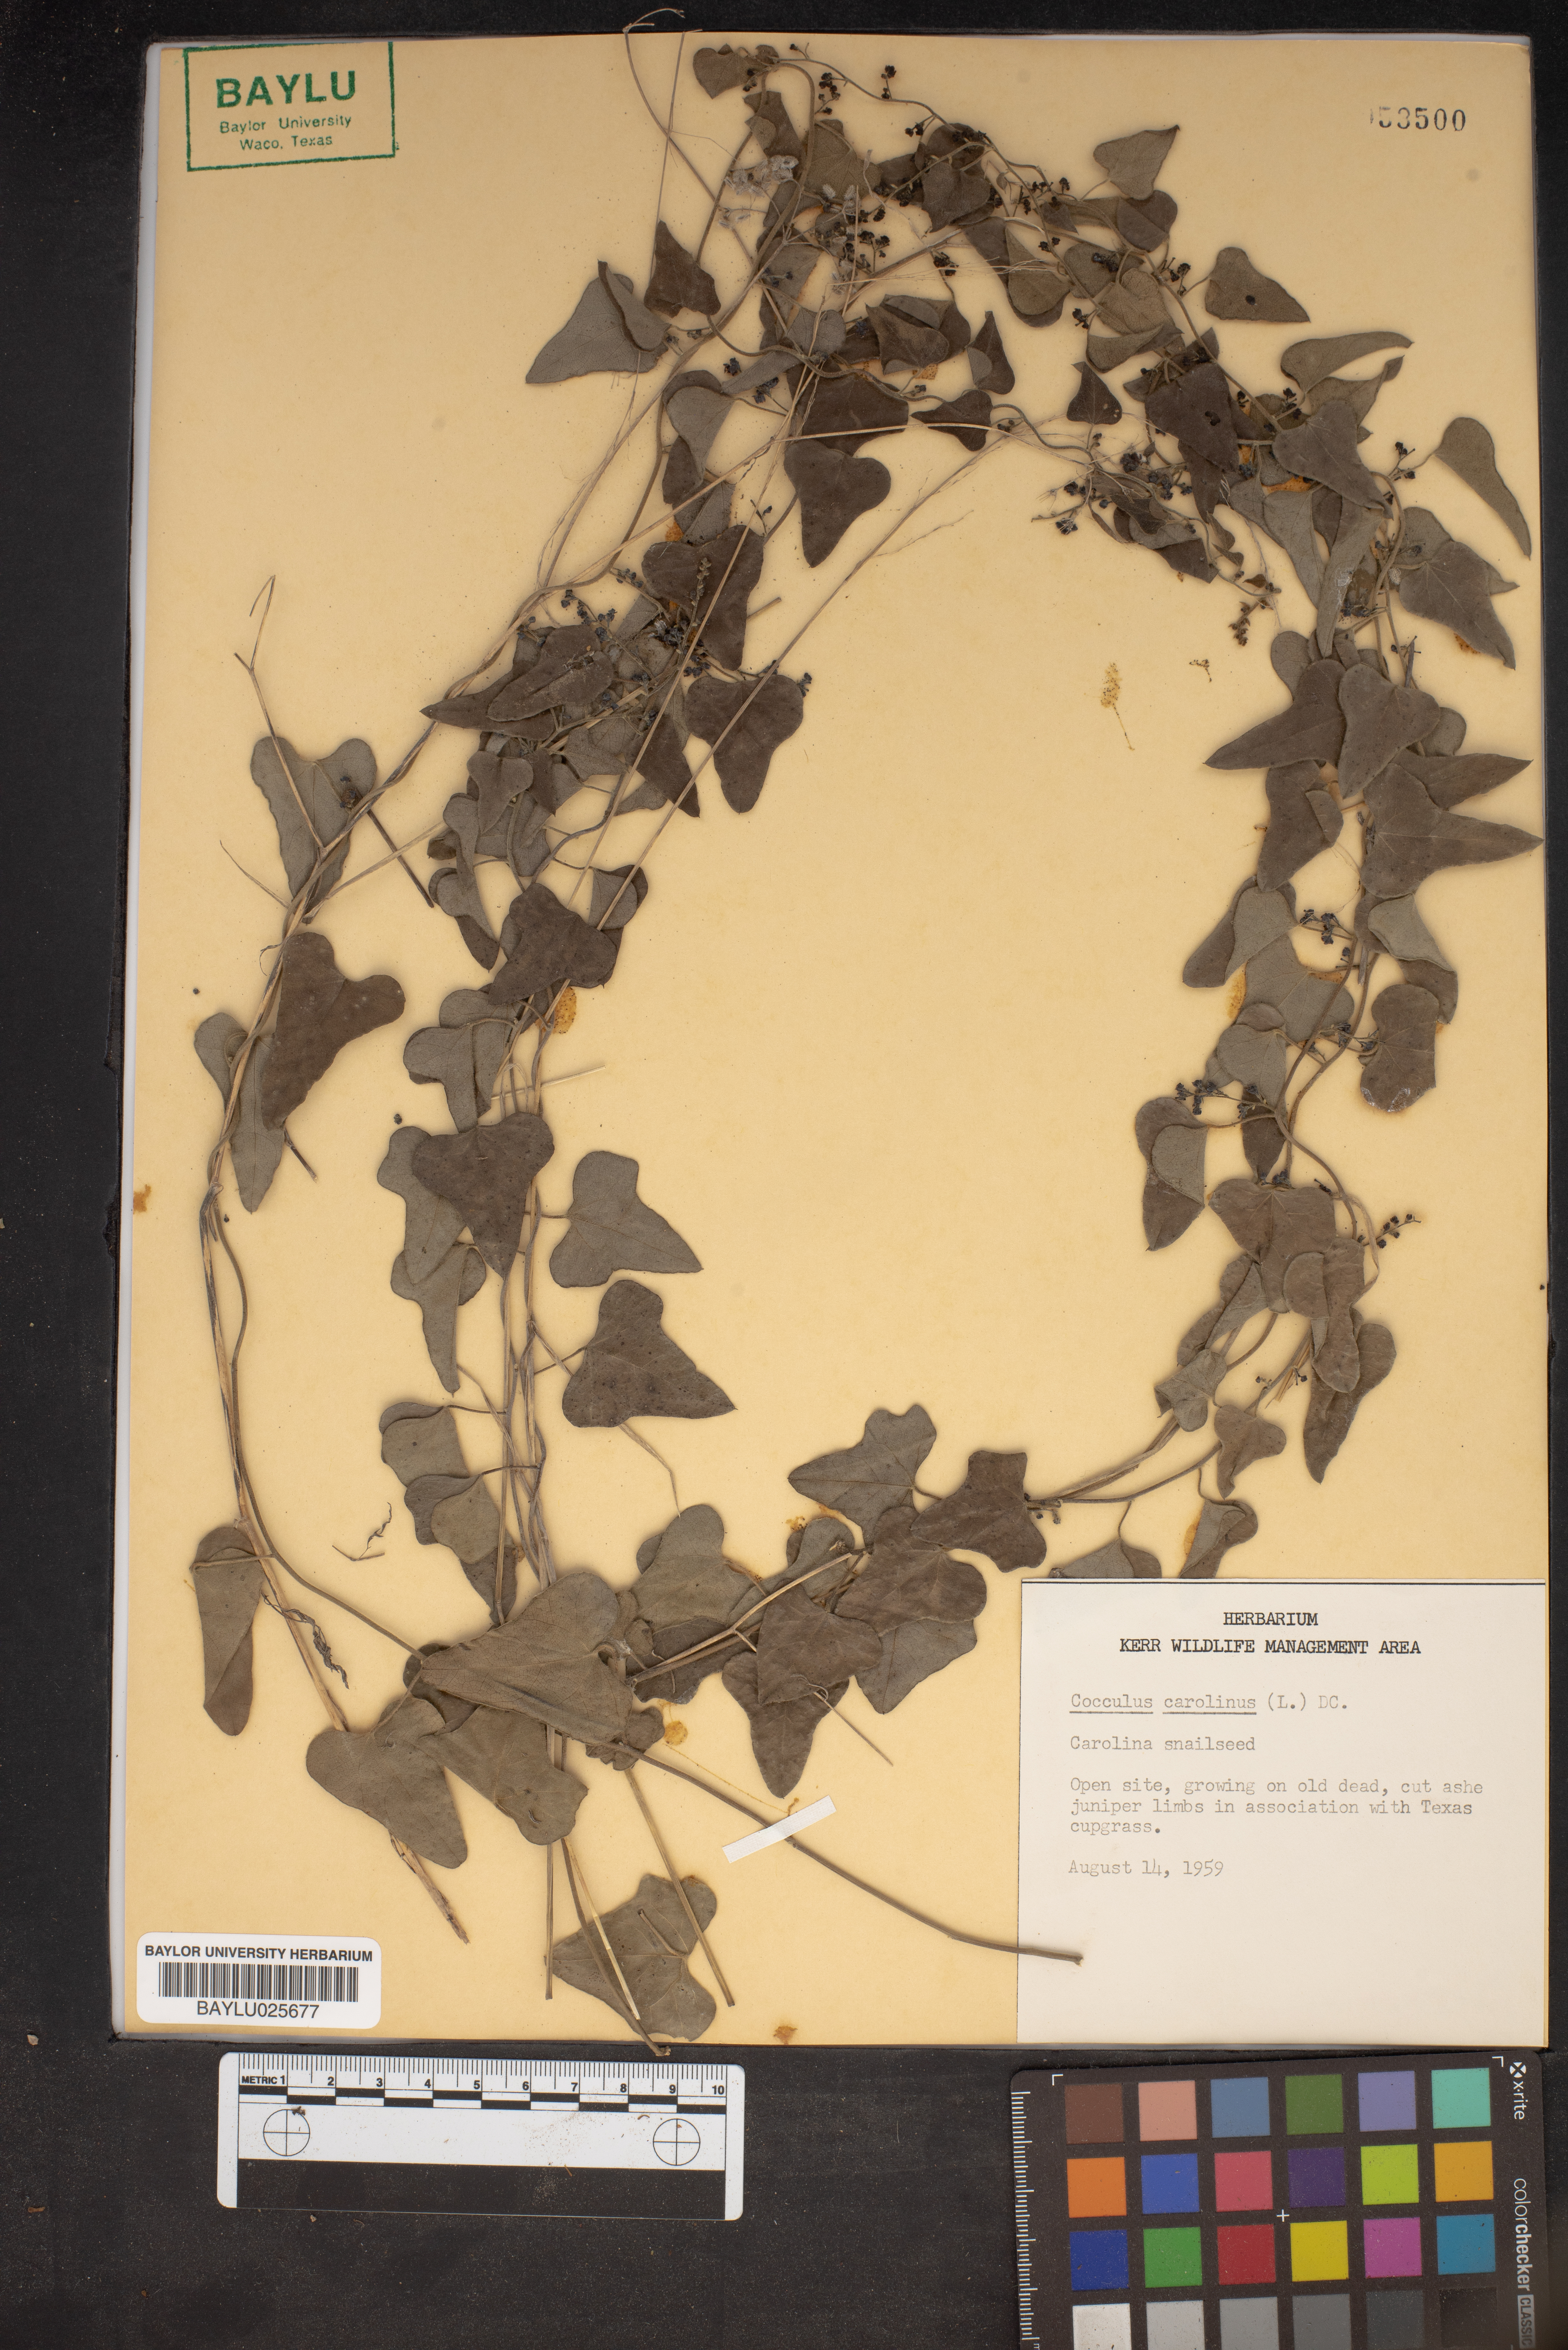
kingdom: Plantae
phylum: Tracheophyta
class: Magnoliopsida
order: Ranunculales
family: Menispermaceae
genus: Cocculus
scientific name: Cocculus carolinus
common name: Carolina moonseed
